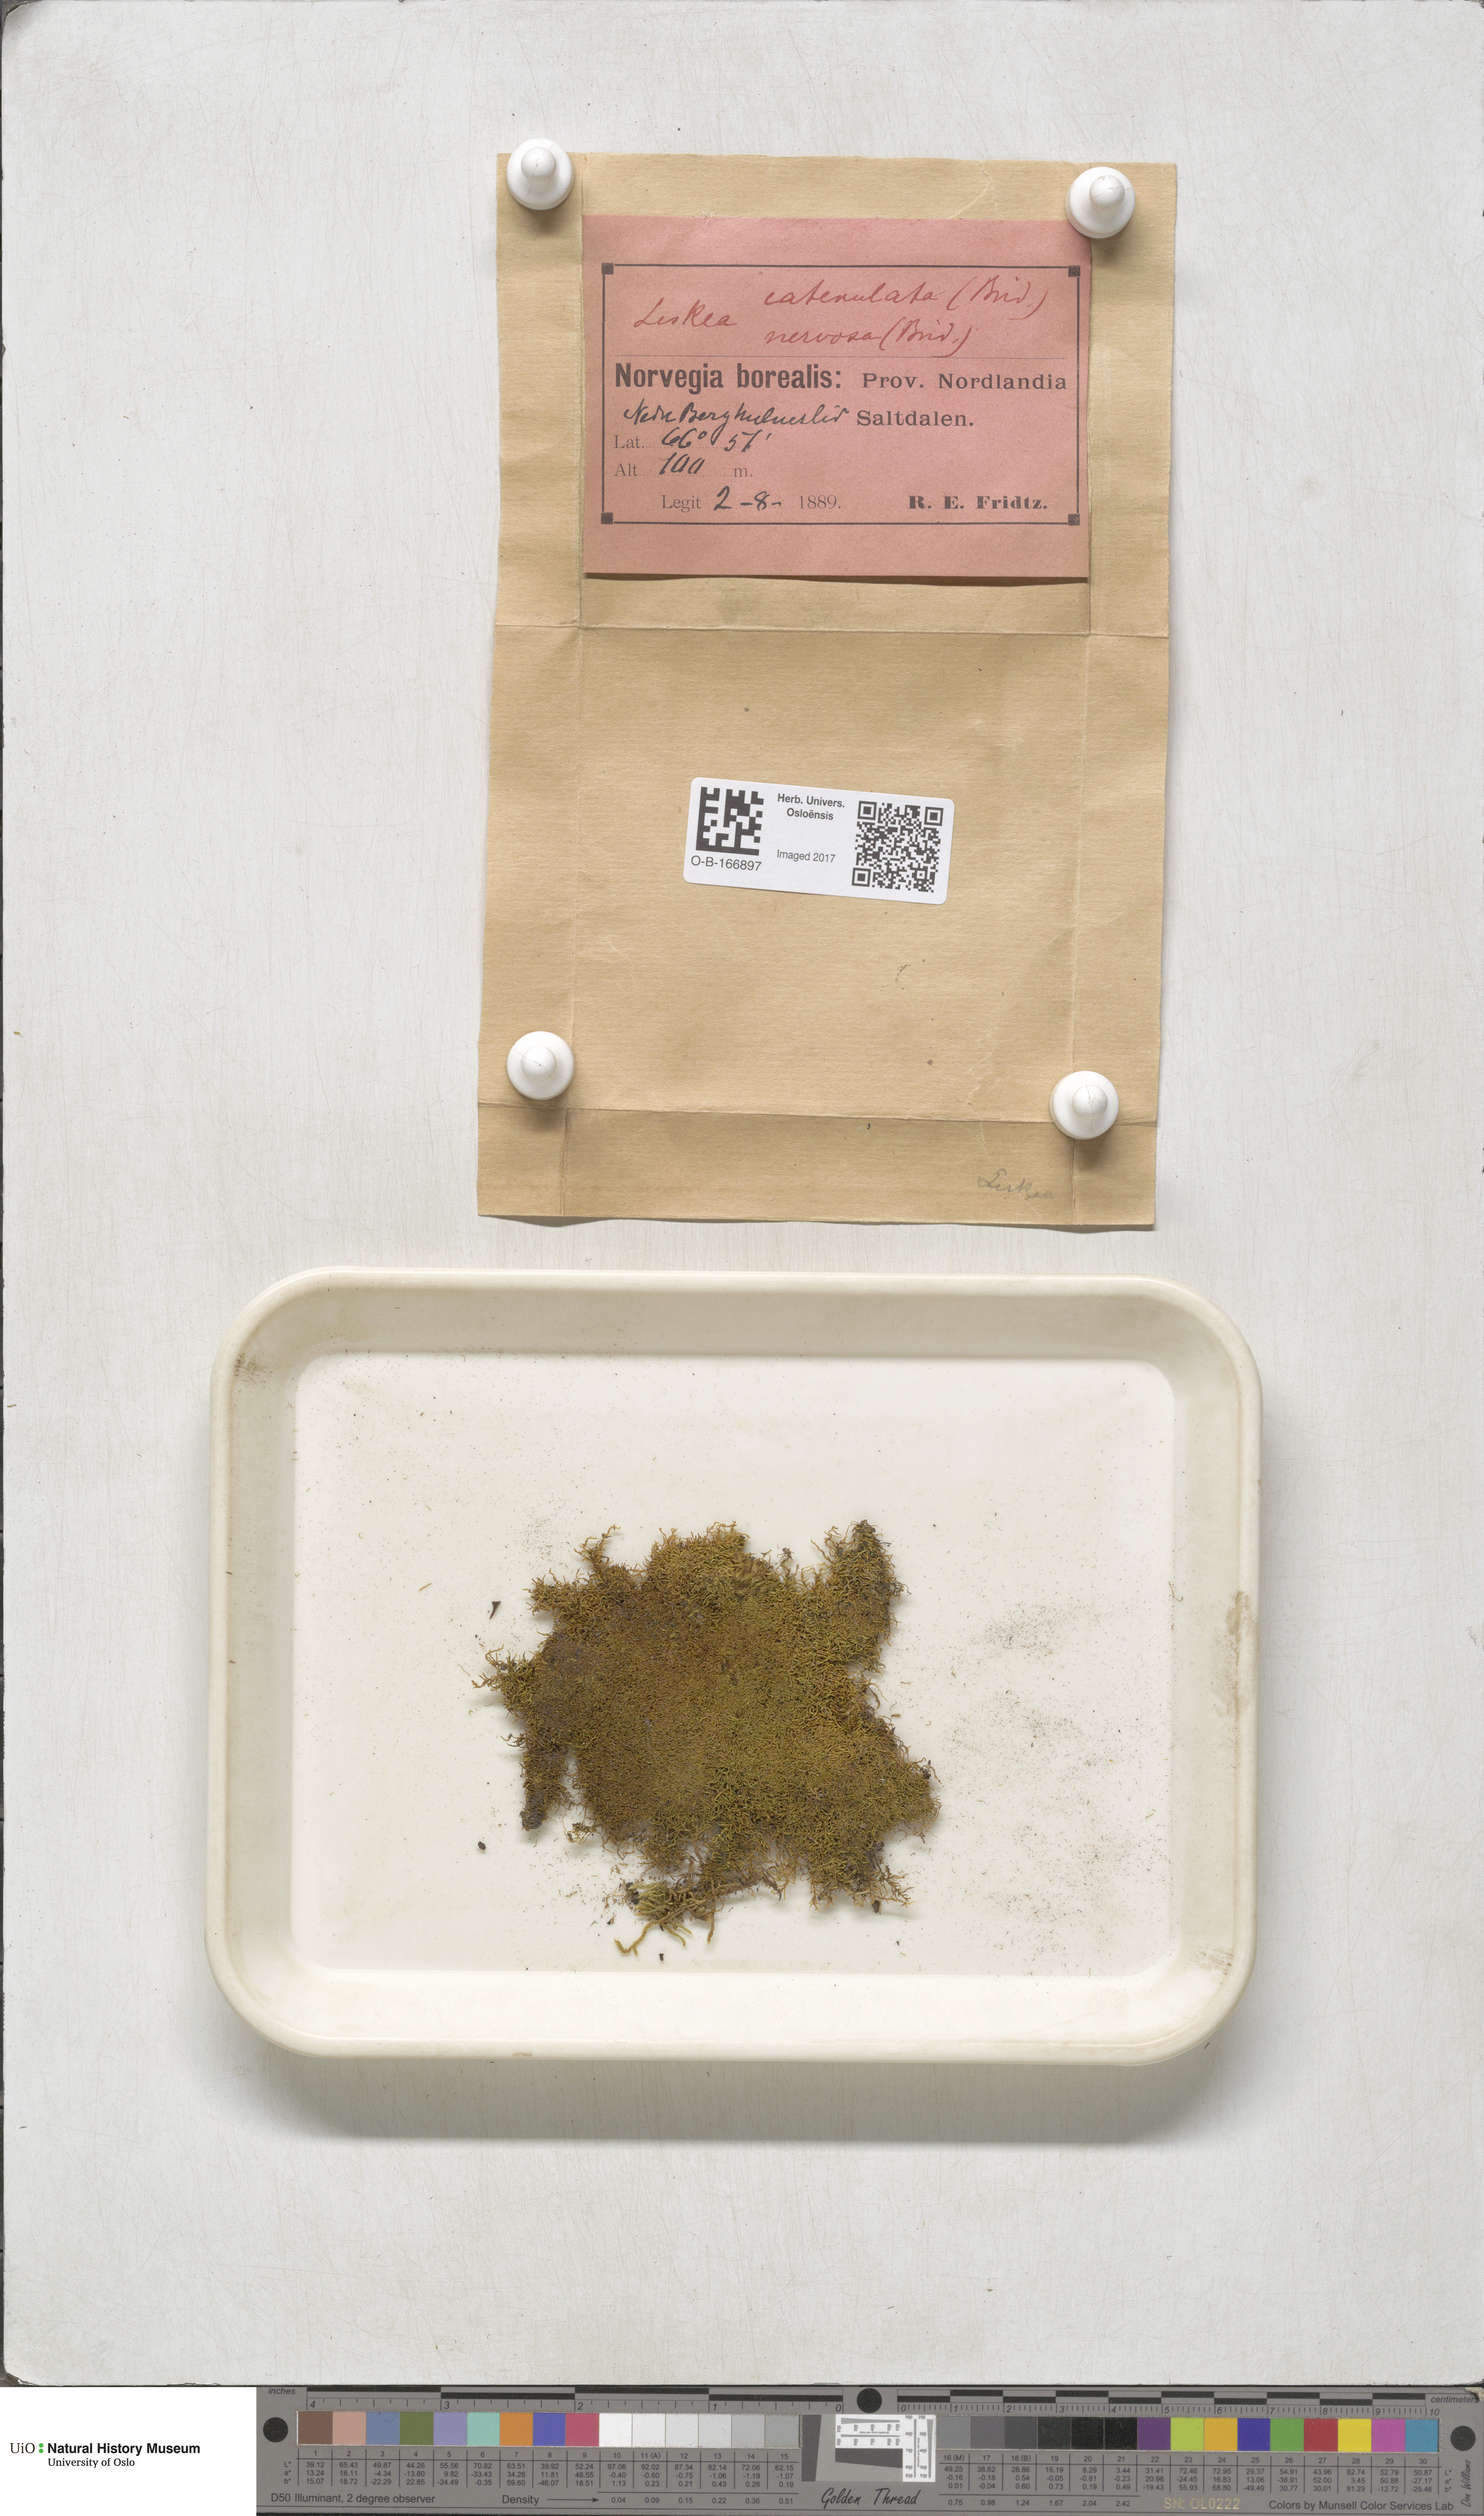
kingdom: Plantae
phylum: Bryophyta
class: Bryopsida
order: Hypnales
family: Pseudoleskeellaceae
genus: Pseudoleskeella
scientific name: Pseudoleskeella catenulata
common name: Chained leskea
